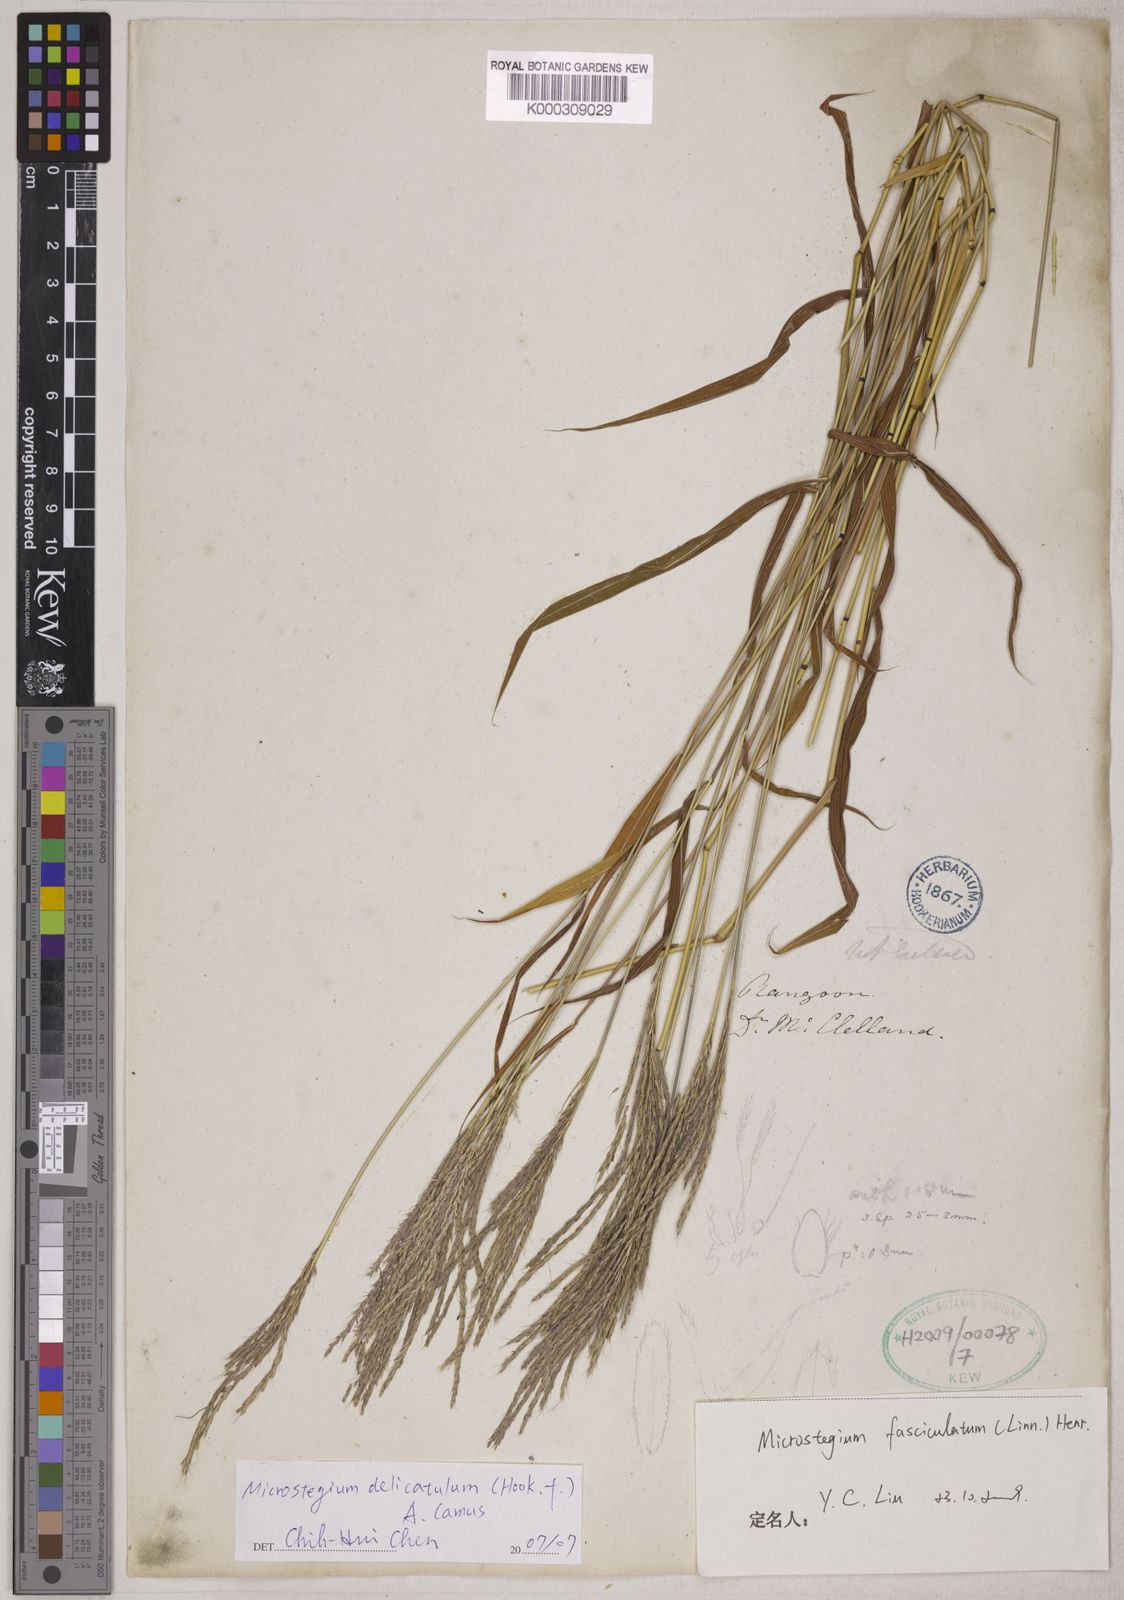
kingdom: Plantae
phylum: Tracheophyta
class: Liliopsida
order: Poales
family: Poaceae
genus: Microstegium
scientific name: Microstegium delicatulum
